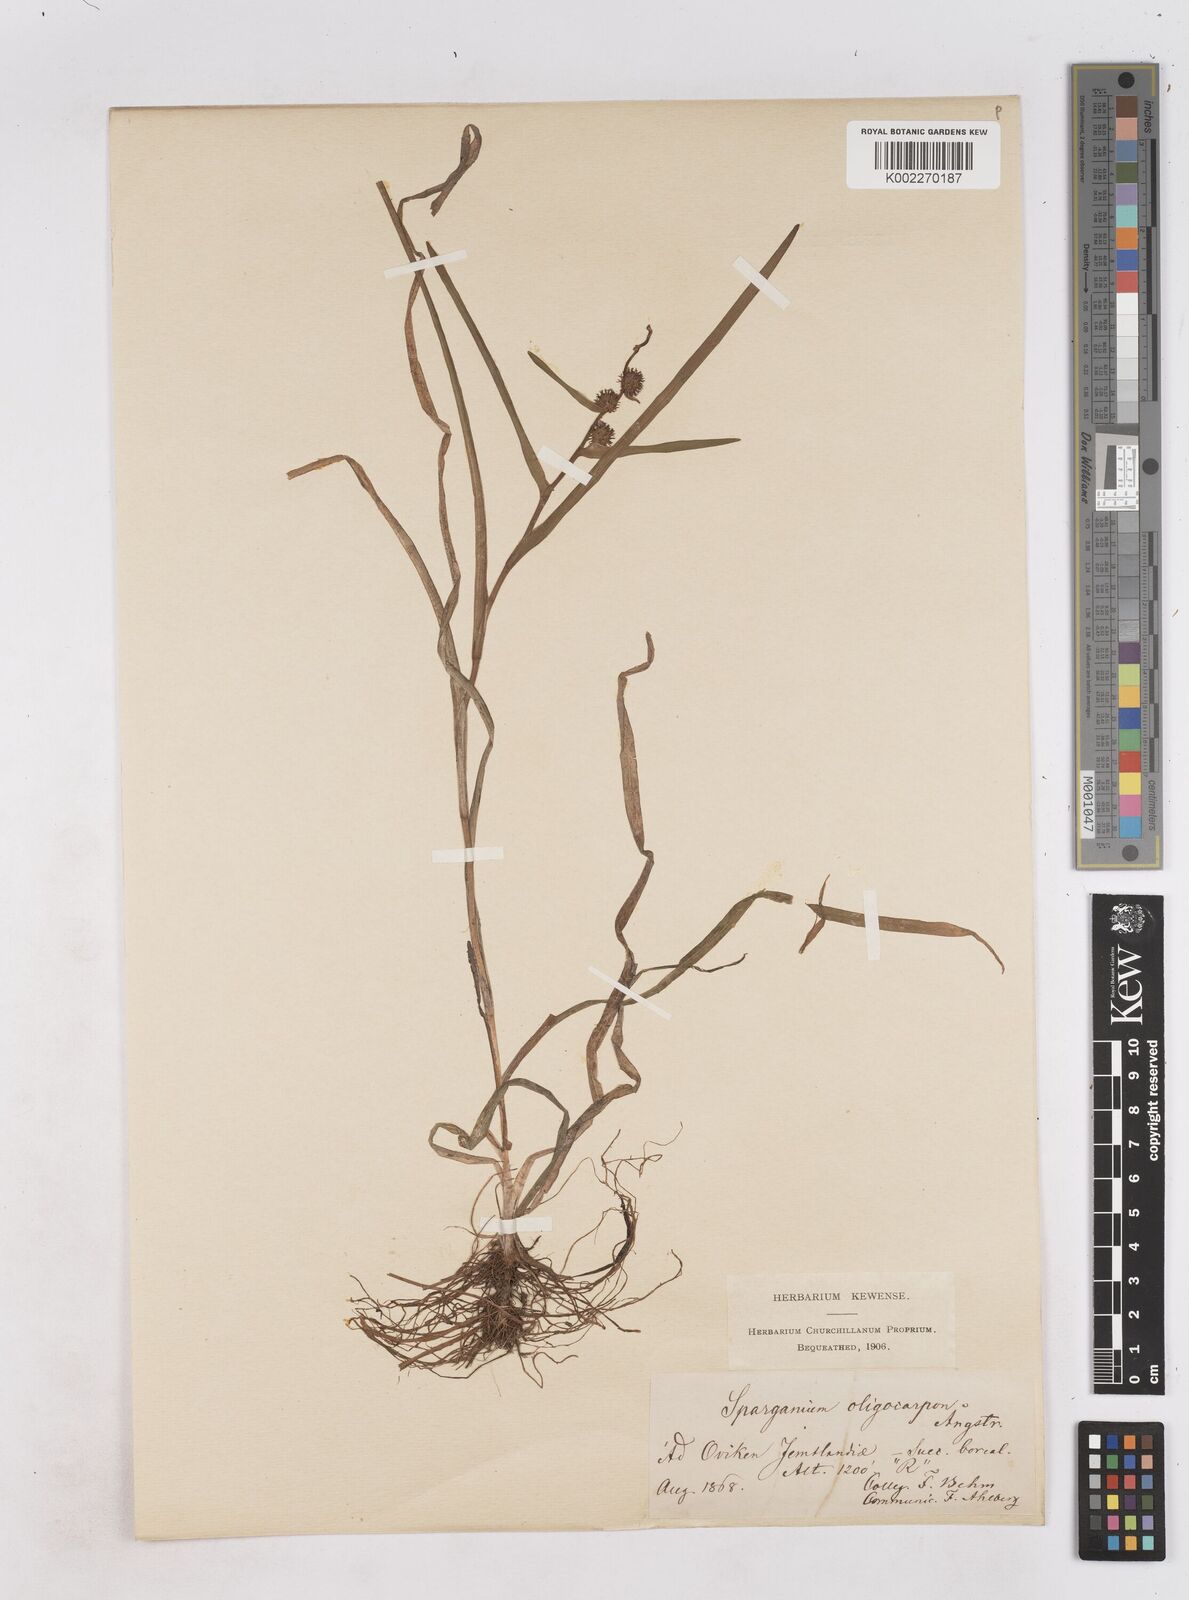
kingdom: Plantae
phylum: Tracheophyta
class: Liliopsida
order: Poales
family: Typhaceae
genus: Sparganium
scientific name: Sparganium oligocarpon
